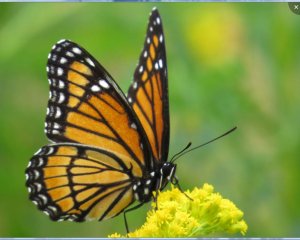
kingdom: Animalia
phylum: Arthropoda
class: Insecta
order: Lepidoptera
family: Nymphalidae
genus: Limenitis
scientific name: Limenitis archippus
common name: Viceroy
